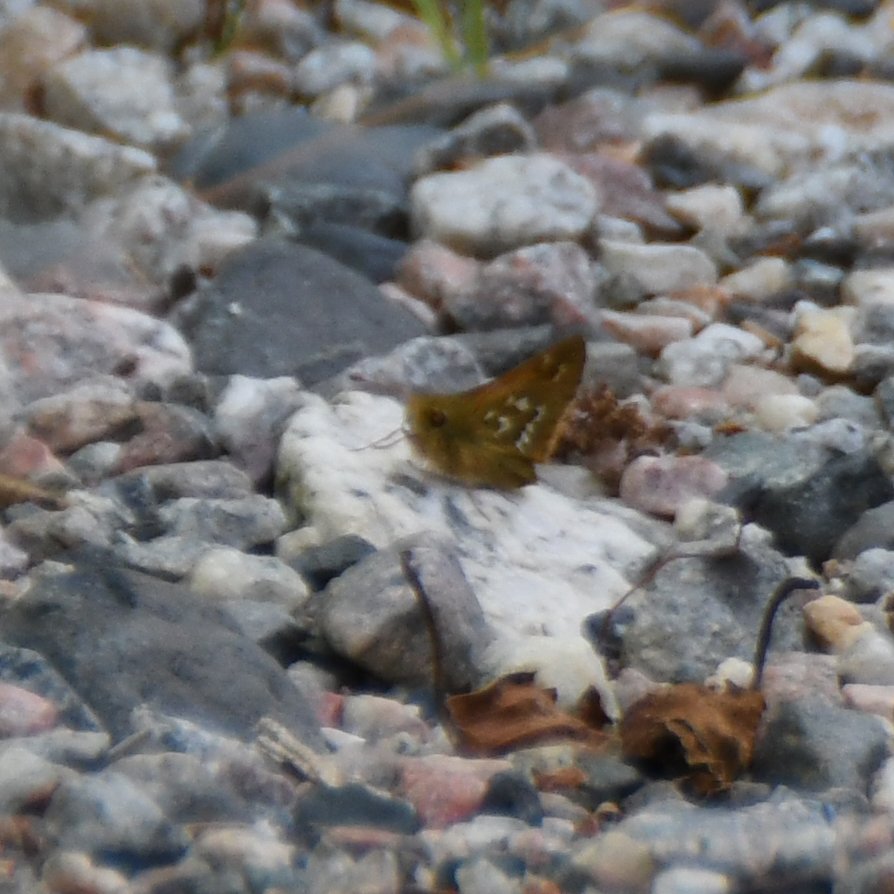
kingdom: Animalia
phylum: Arthropoda
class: Insecta
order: Lepidoptera
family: Hesperiidae
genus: Hesperia
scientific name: Hesperia comma
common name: Common Branded Skipper
